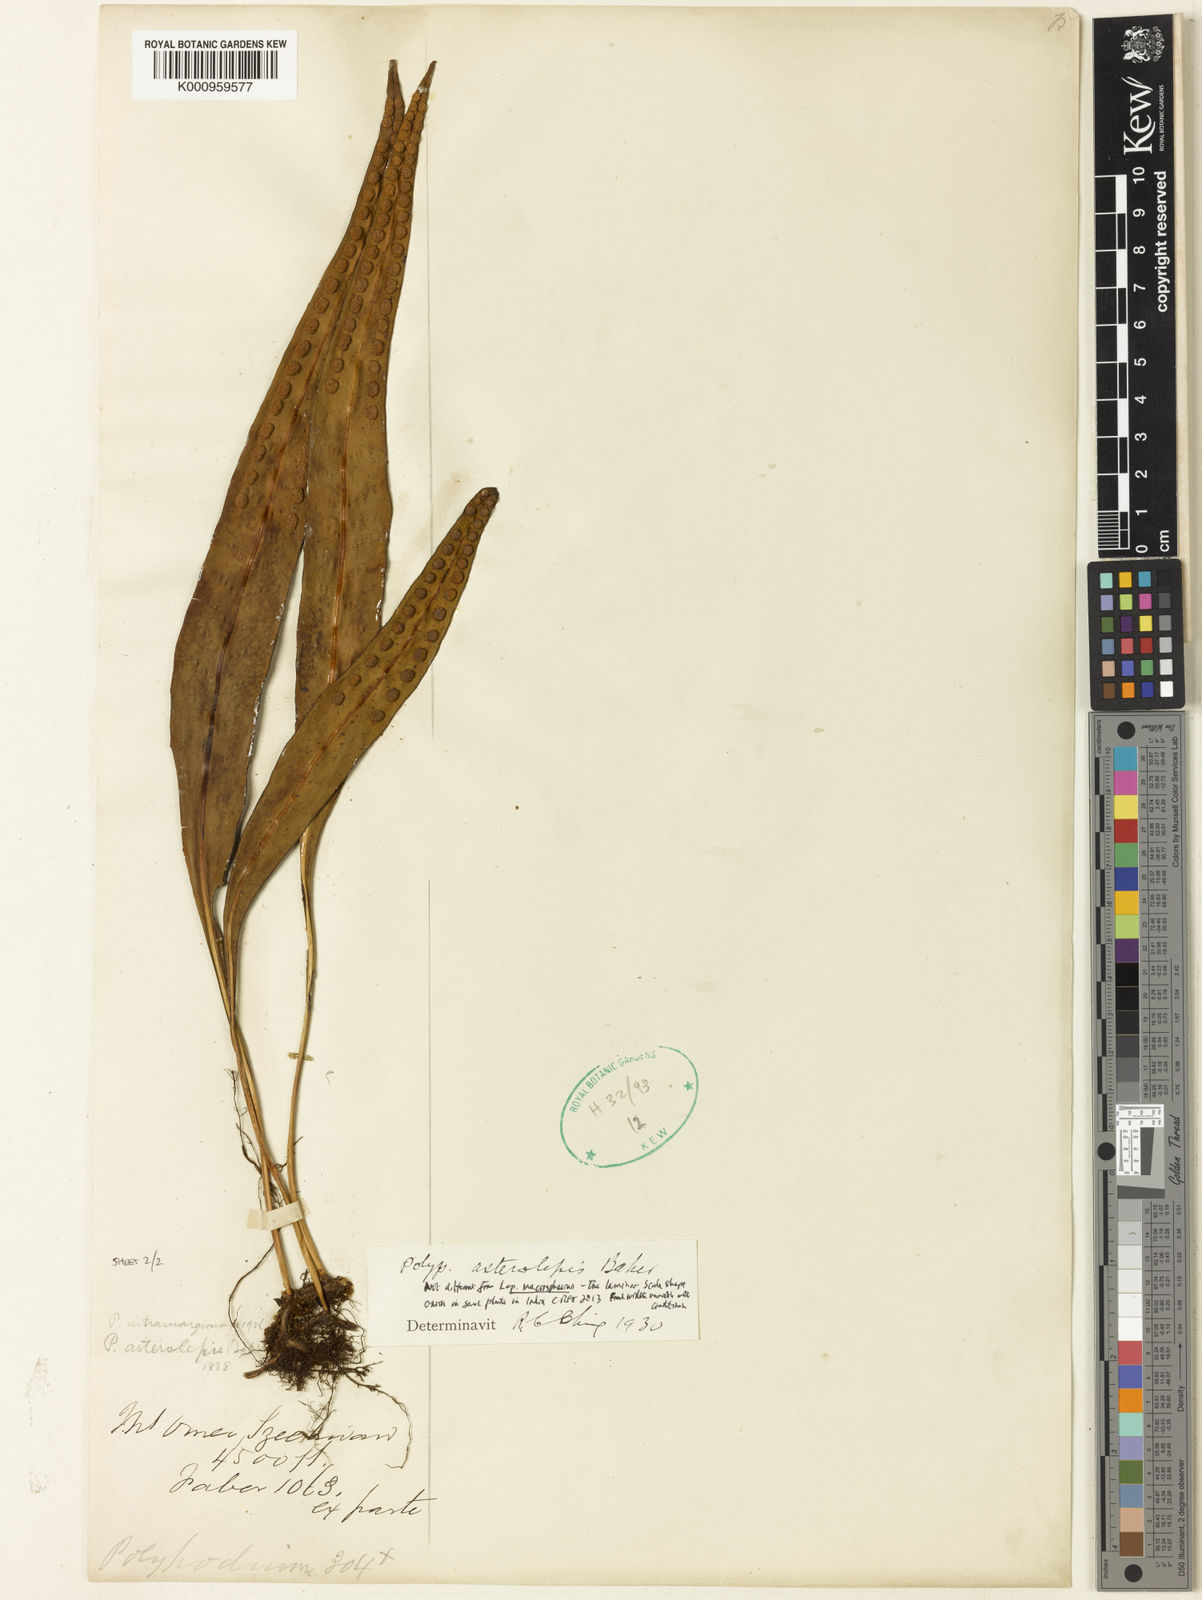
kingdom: Plantae
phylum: Tracheophyta
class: Polypodiopsida
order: Polypodiales
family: Polypodiaceae
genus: Lepisorus
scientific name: Lepisorus asterolepis
